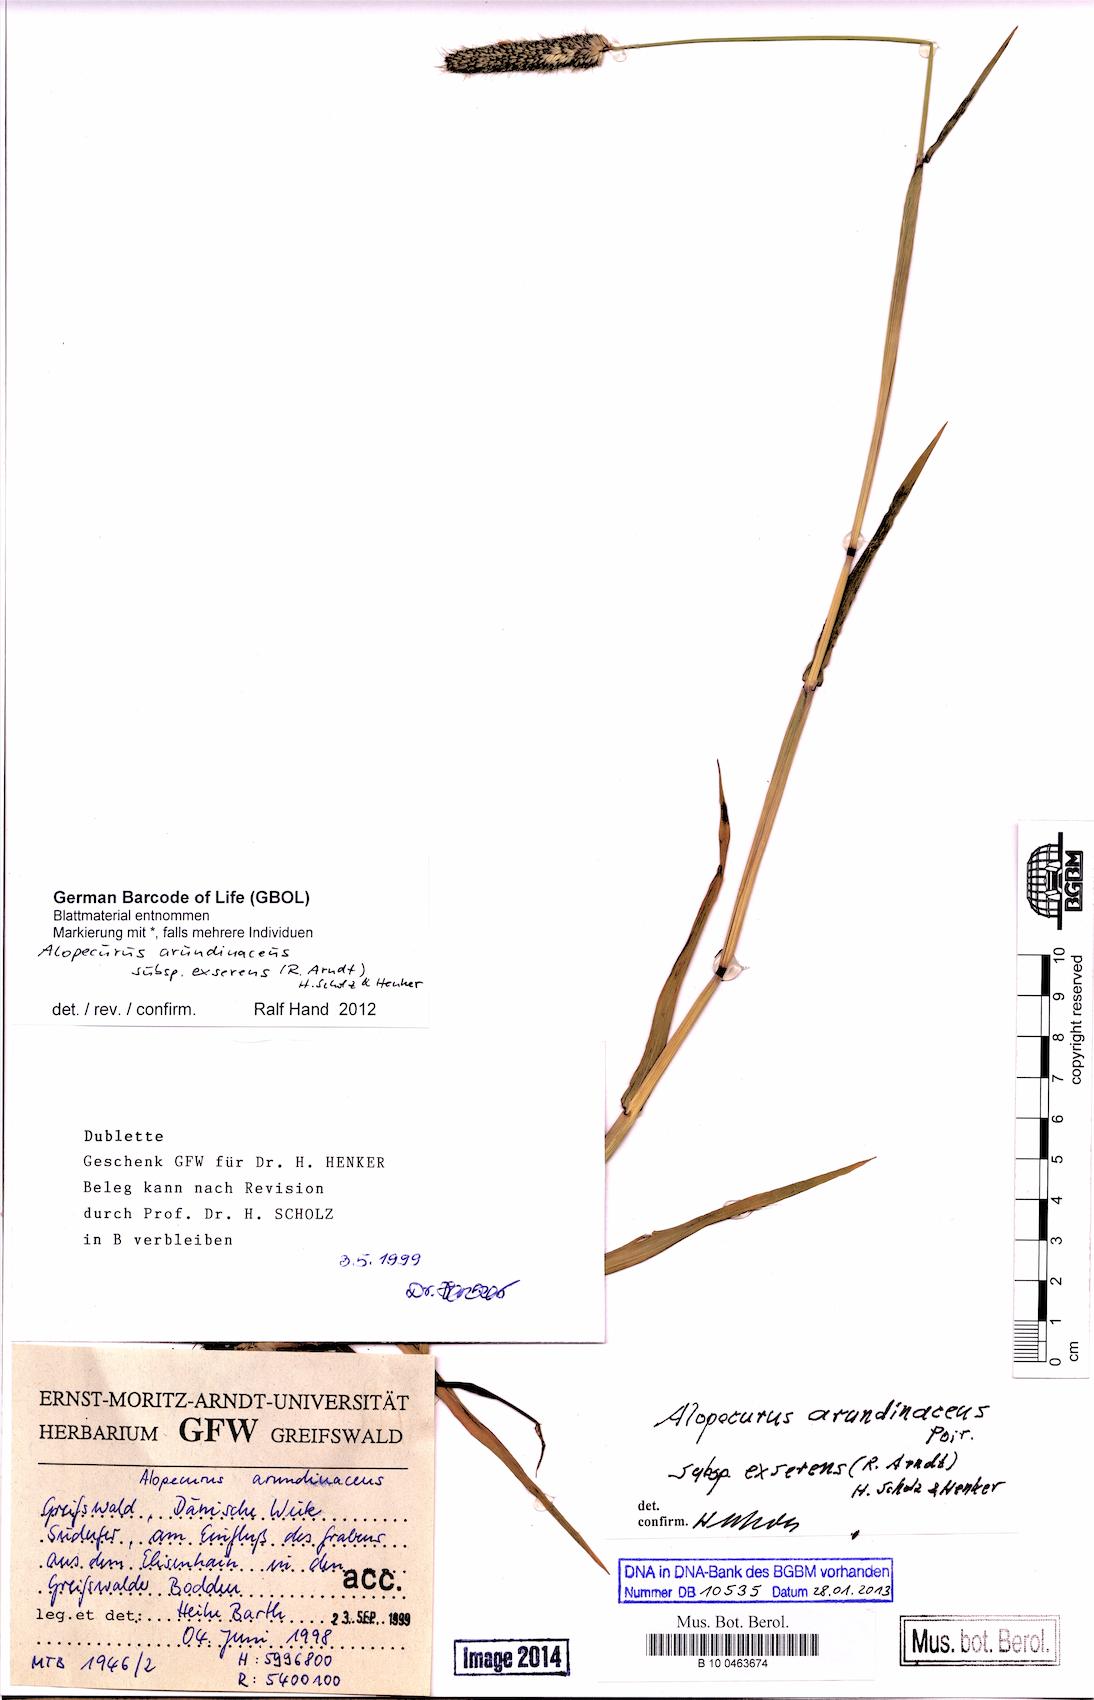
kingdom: Plantae
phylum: Tracheophyta
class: Liliopsida
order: Poales
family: Poaceae
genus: Alopecurus
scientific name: Alopecurus arundinaceus
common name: Creeping meadow foxtail
